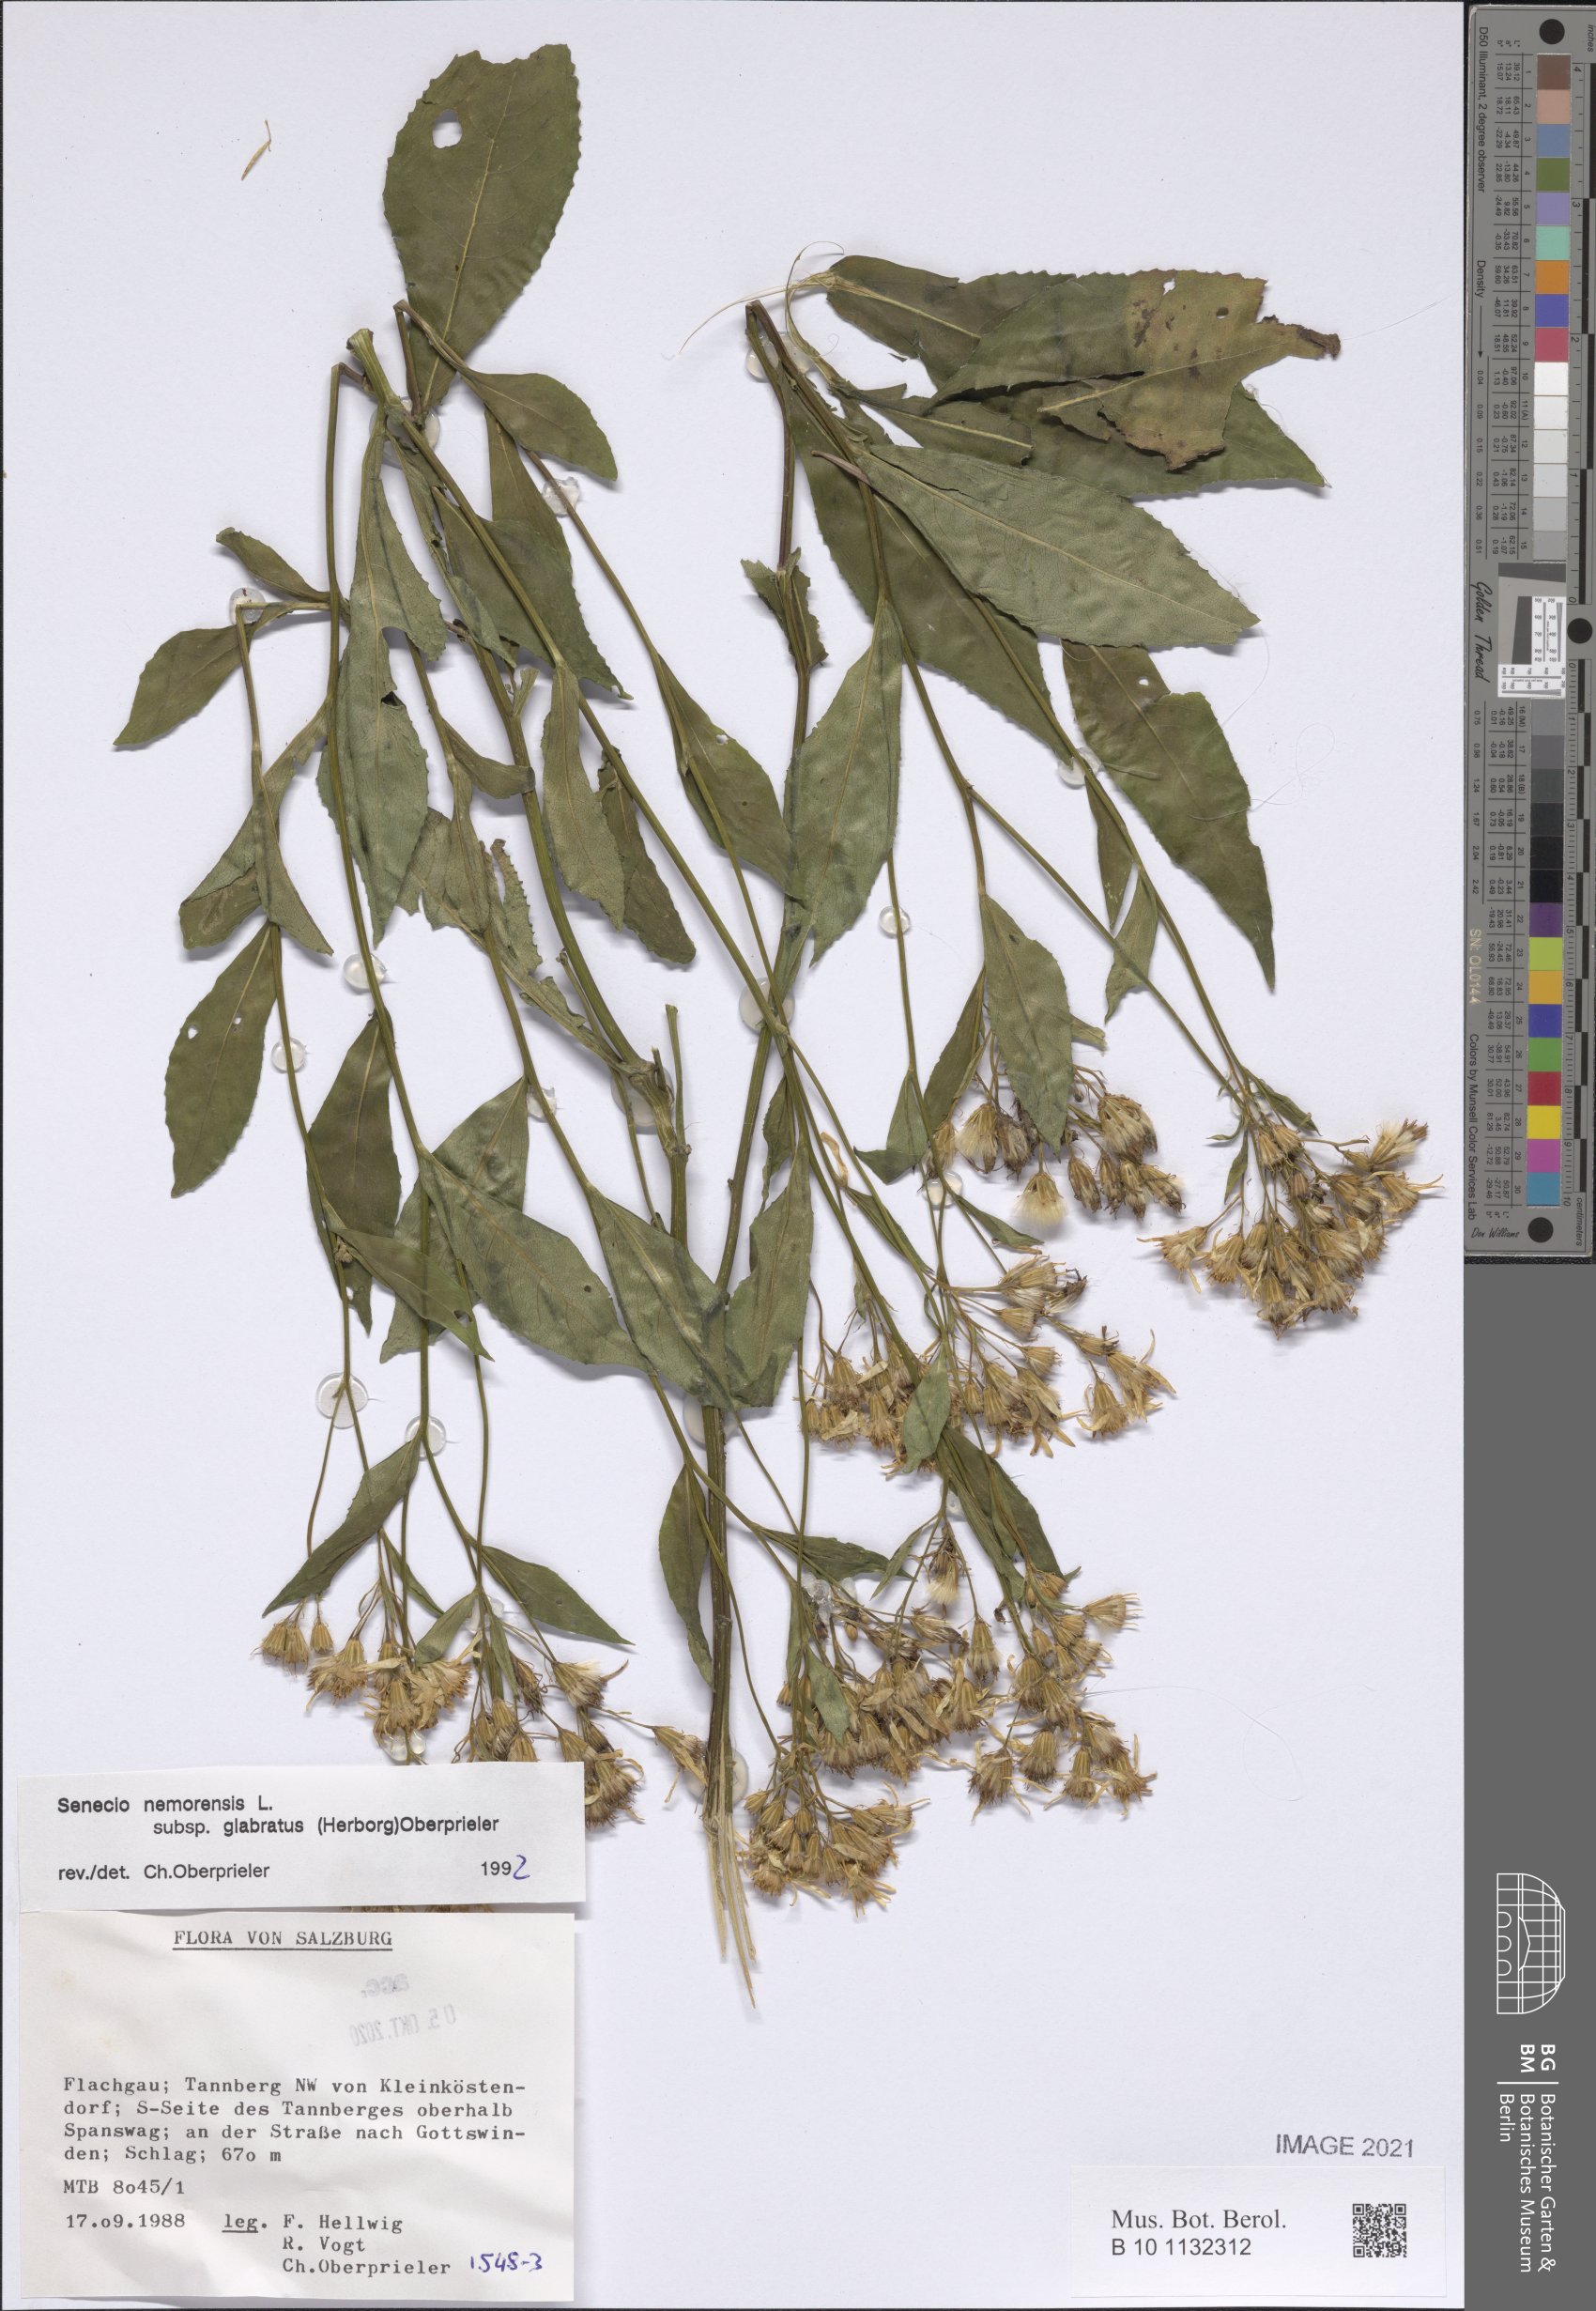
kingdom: Plantae
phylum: Tracheophyta
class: Magnoliopsida
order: Asterales
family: Asteraceae
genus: Senecio
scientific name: Senecio germanicus
